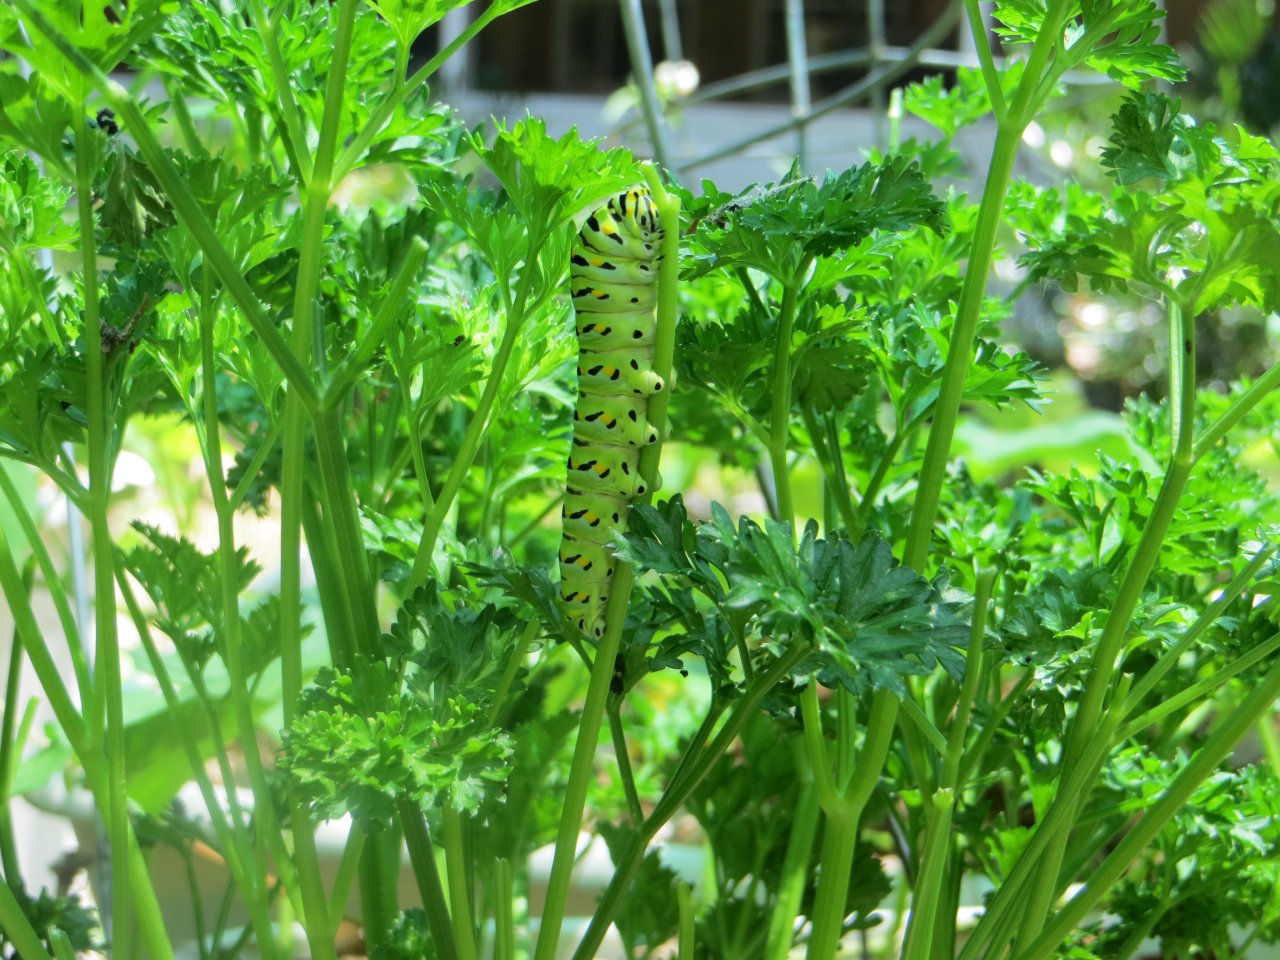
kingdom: Animalia
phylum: Arthropoda
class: Insecta
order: Lepidoptera
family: Papilionidae
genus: Papilio
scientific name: Papilio polyxenes
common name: Black Swallowtail
